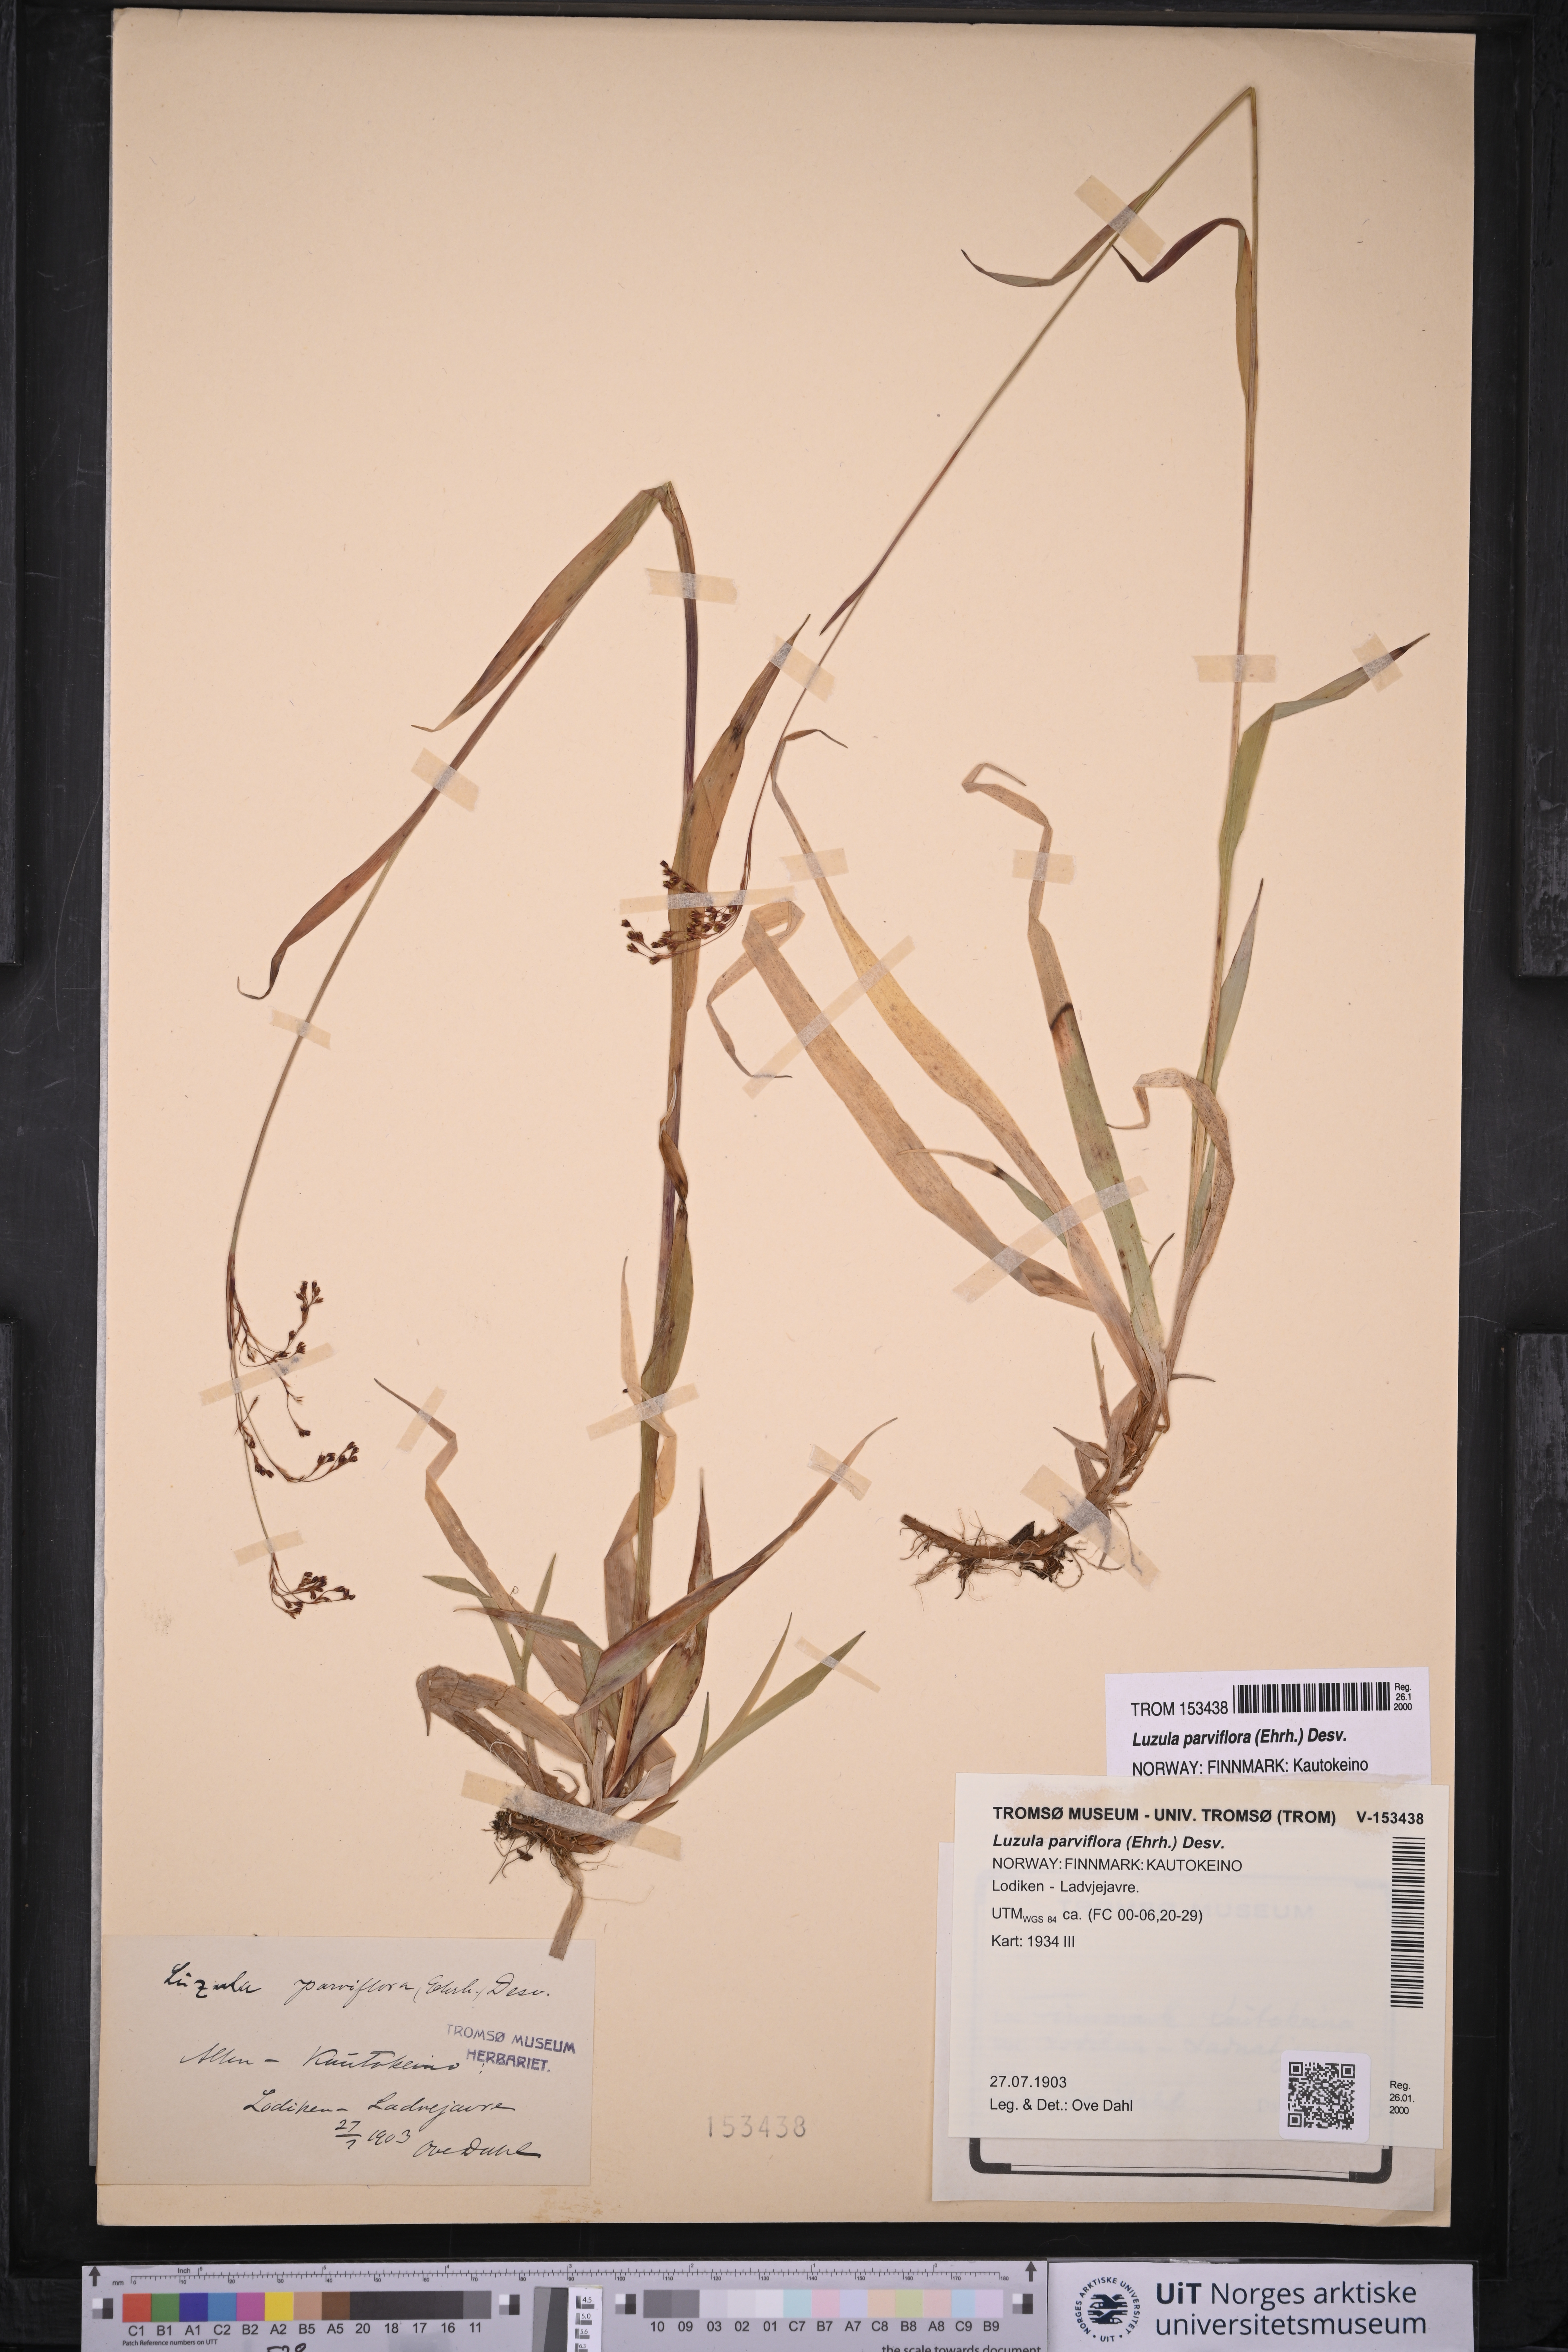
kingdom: Plantae
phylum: Tracheophyta
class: Liliopsida
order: Poales
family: Juncaceae
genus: Luzula
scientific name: Luzula parviflora
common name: Millet woodrush
